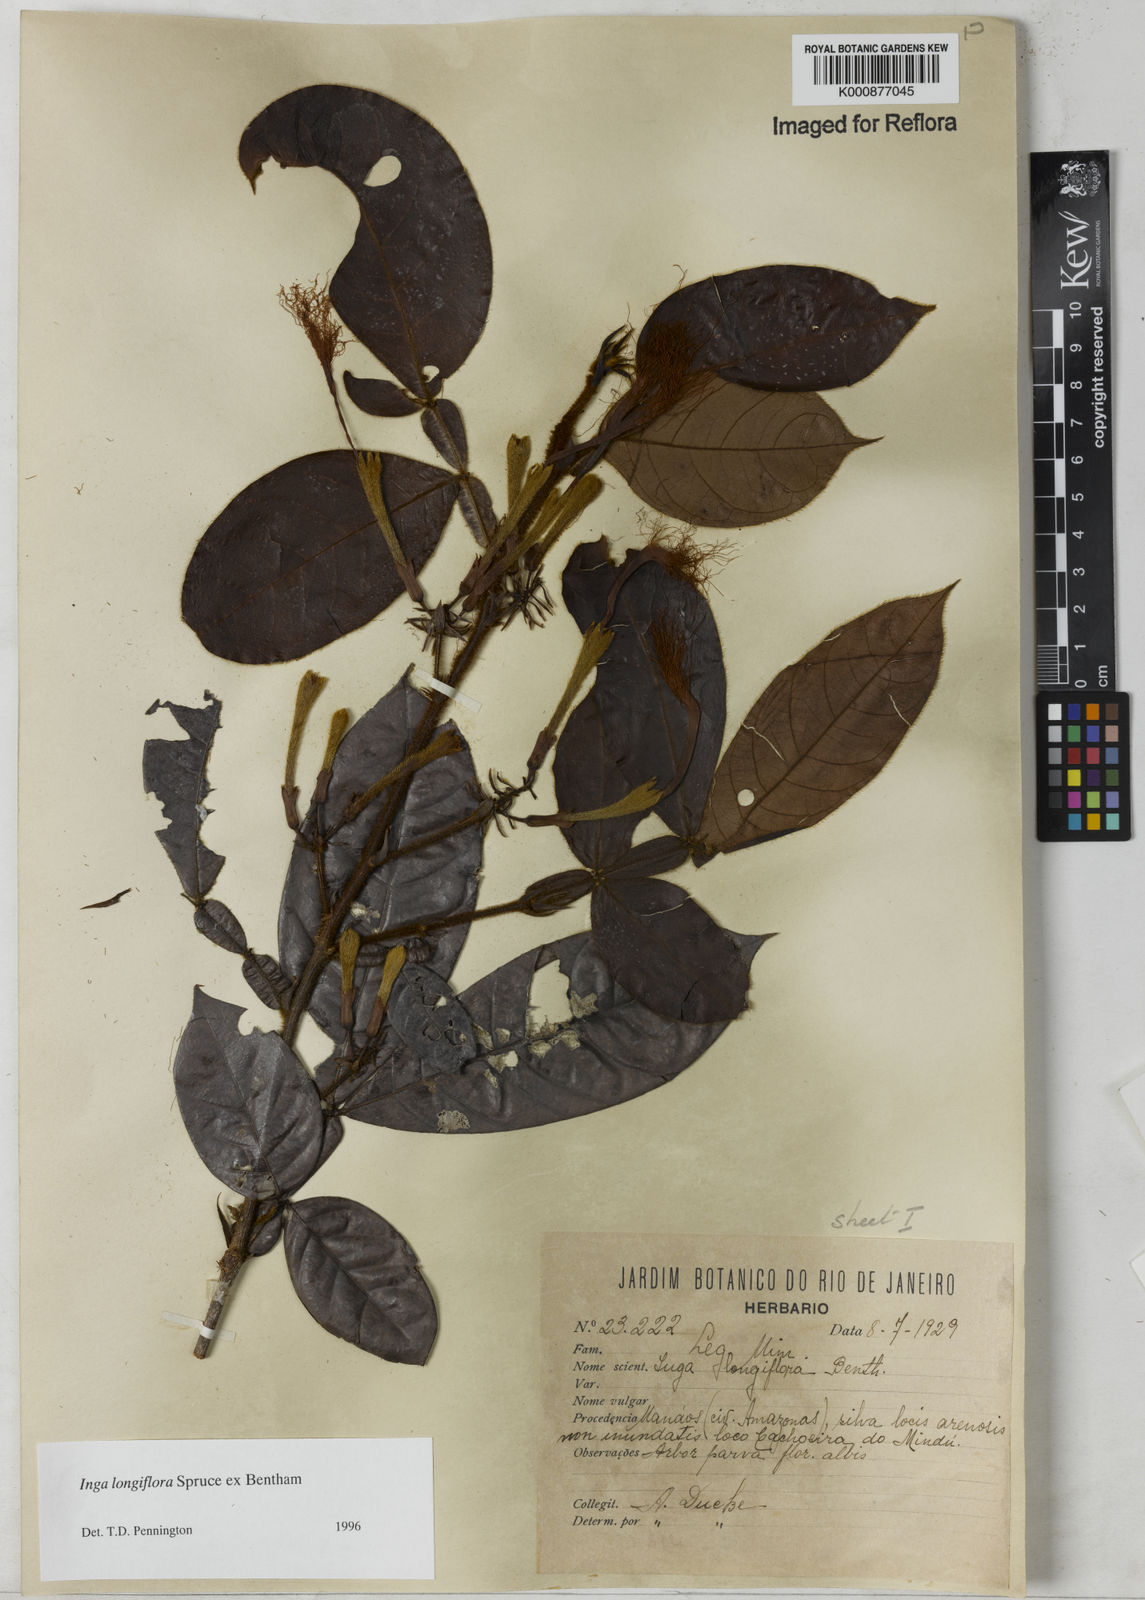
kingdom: Plantae
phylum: Tracheophyta
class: Magnoliopsida
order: Fabales
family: Fabaceae
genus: Inga
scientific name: Inga
